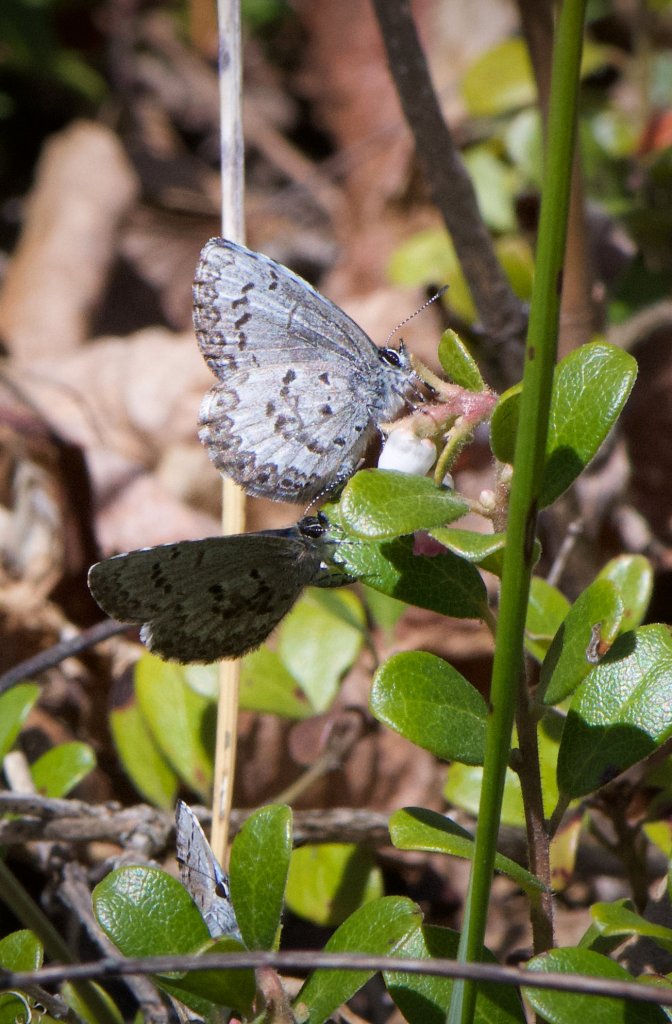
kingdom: Animalia
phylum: Arthropoda
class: Insecta
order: Lepidoptera
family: Lycaenidae
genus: Celastrina
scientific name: Celastrina lucia
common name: Northern Spring Azure
